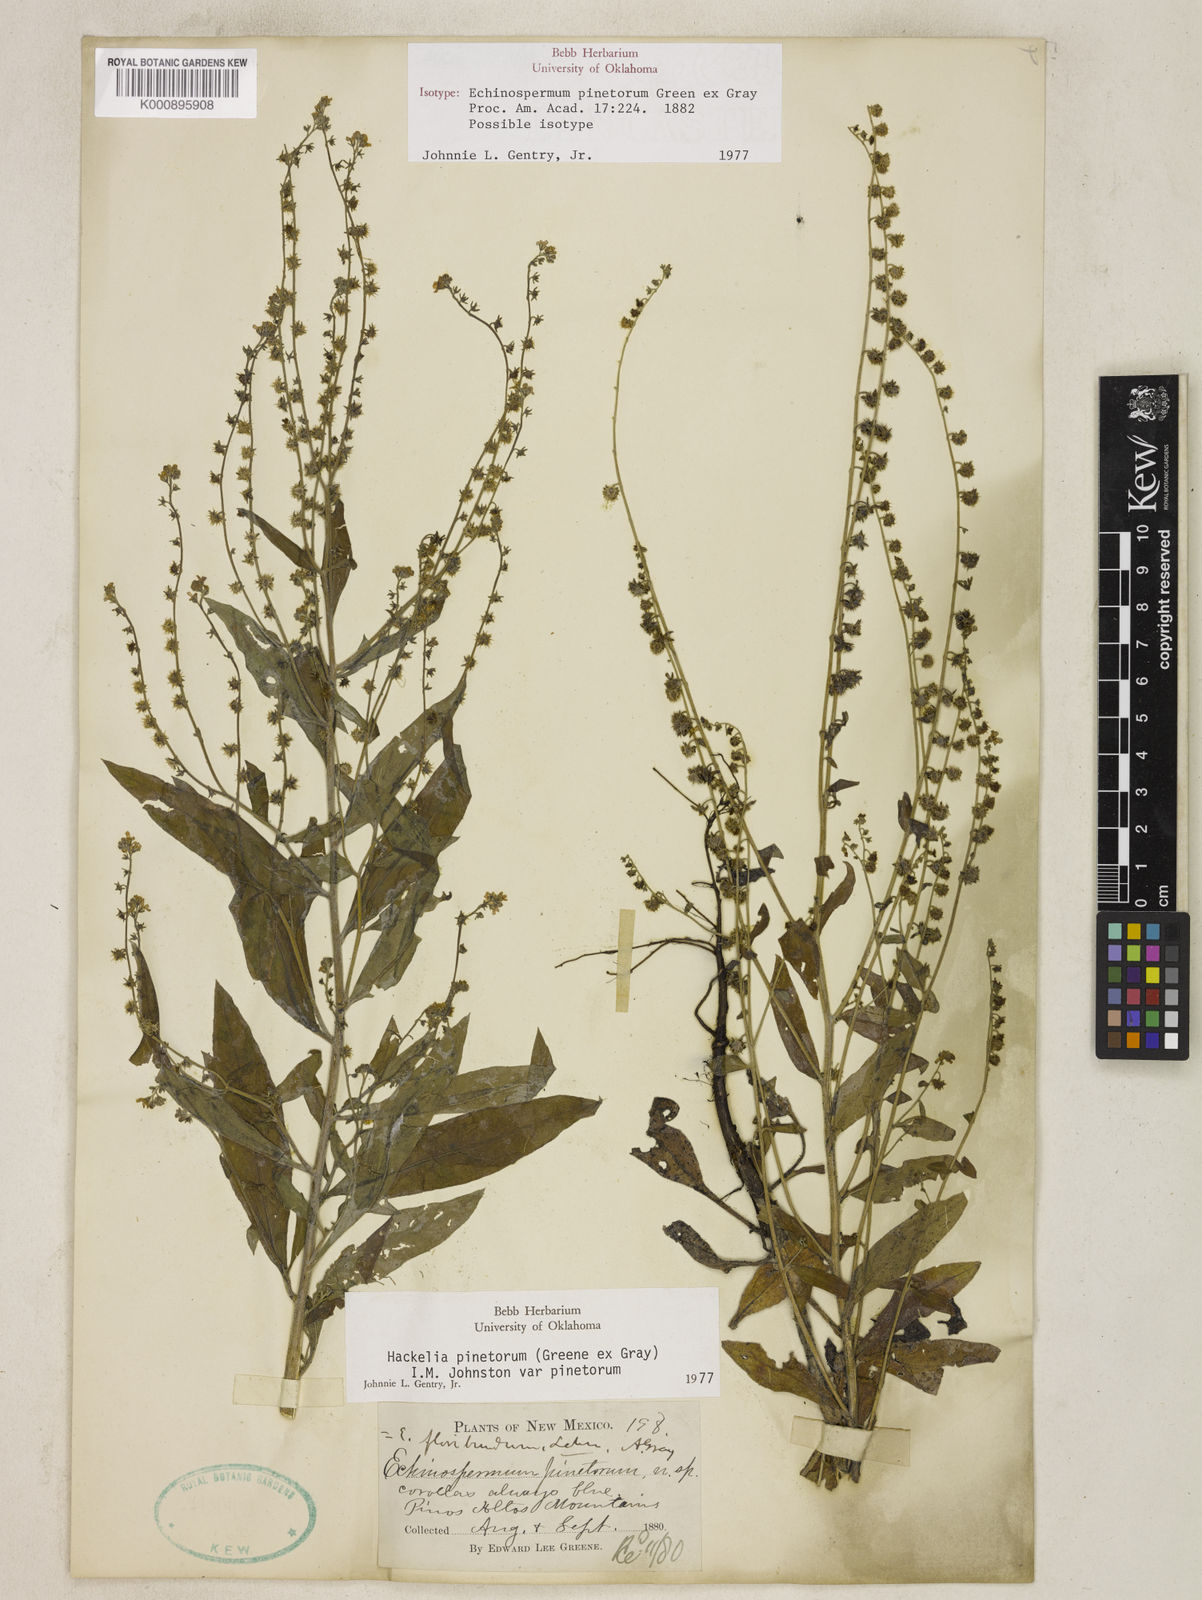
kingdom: Plantae
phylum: Tracheophyta
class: Magnoliopsida
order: Boraginales
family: Boraginaceae
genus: Hackelia
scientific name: Hackelia pinetorum
